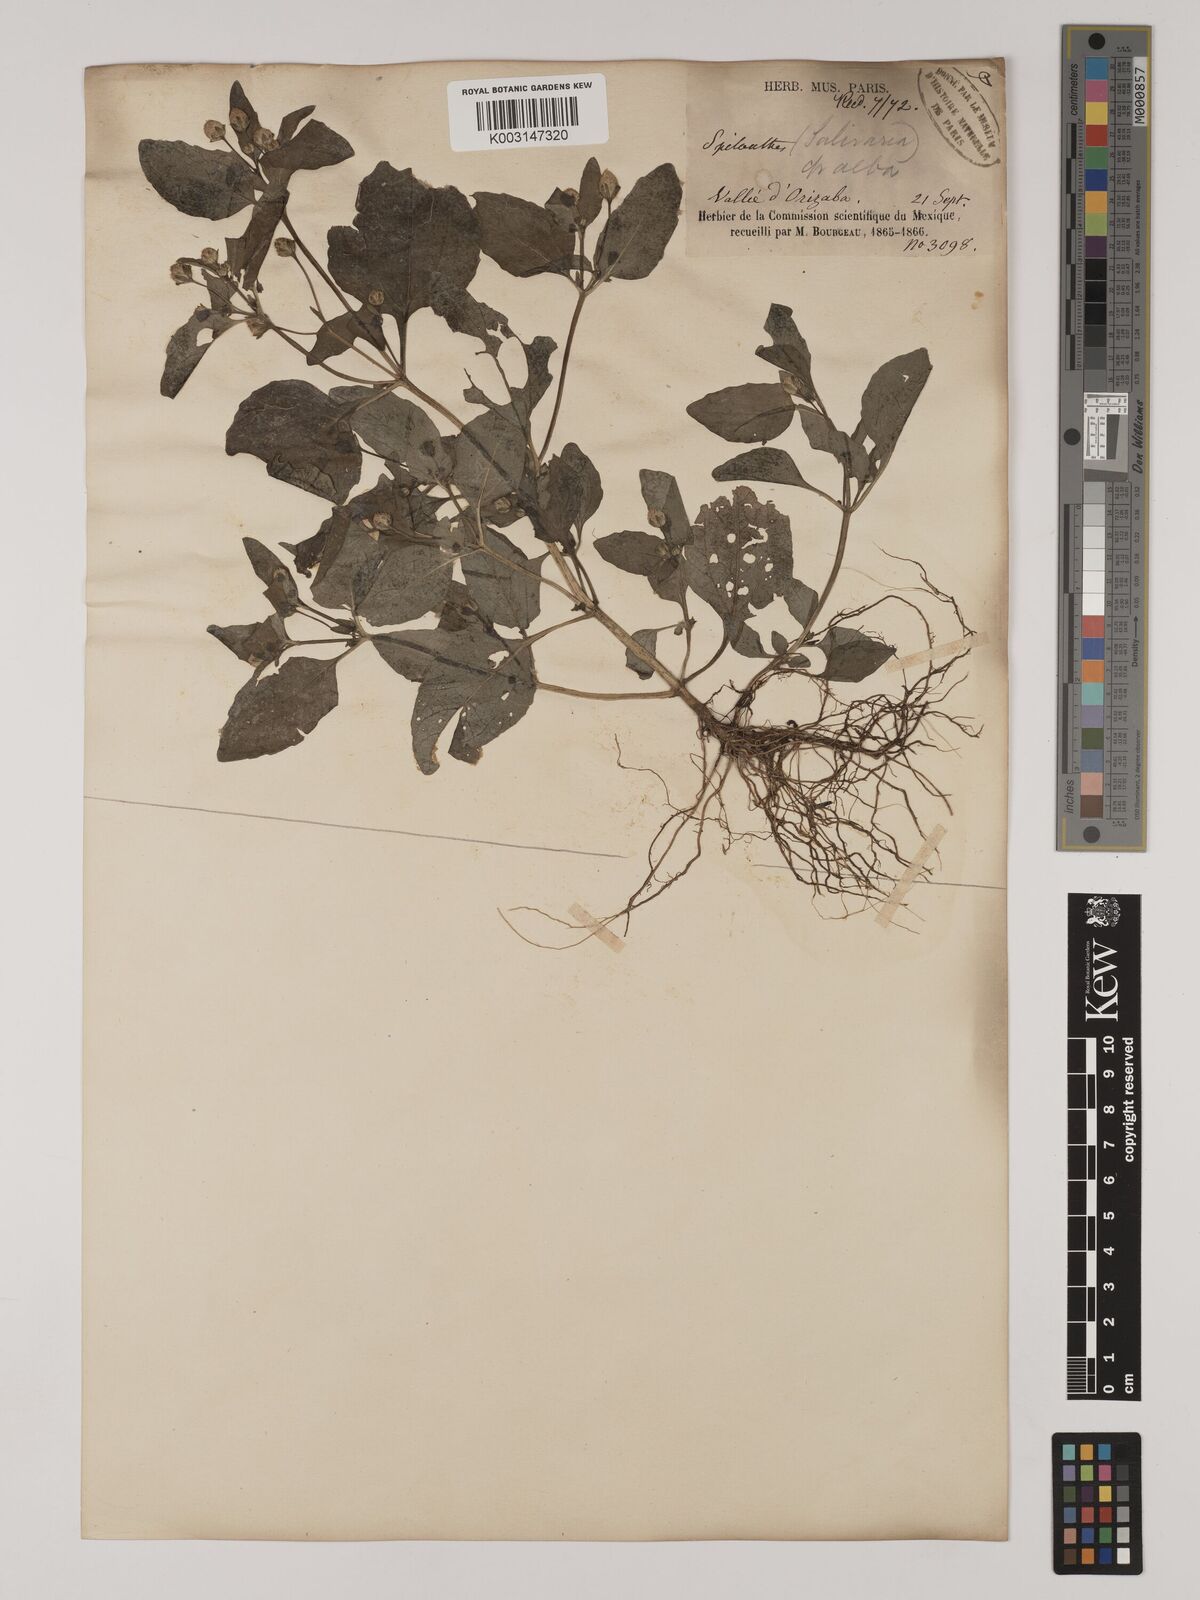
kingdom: Plantae
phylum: Tracheophyta
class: Magnoliopsida
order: Asterales
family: Asteraceae
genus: Acmella
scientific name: Acmella radicans
